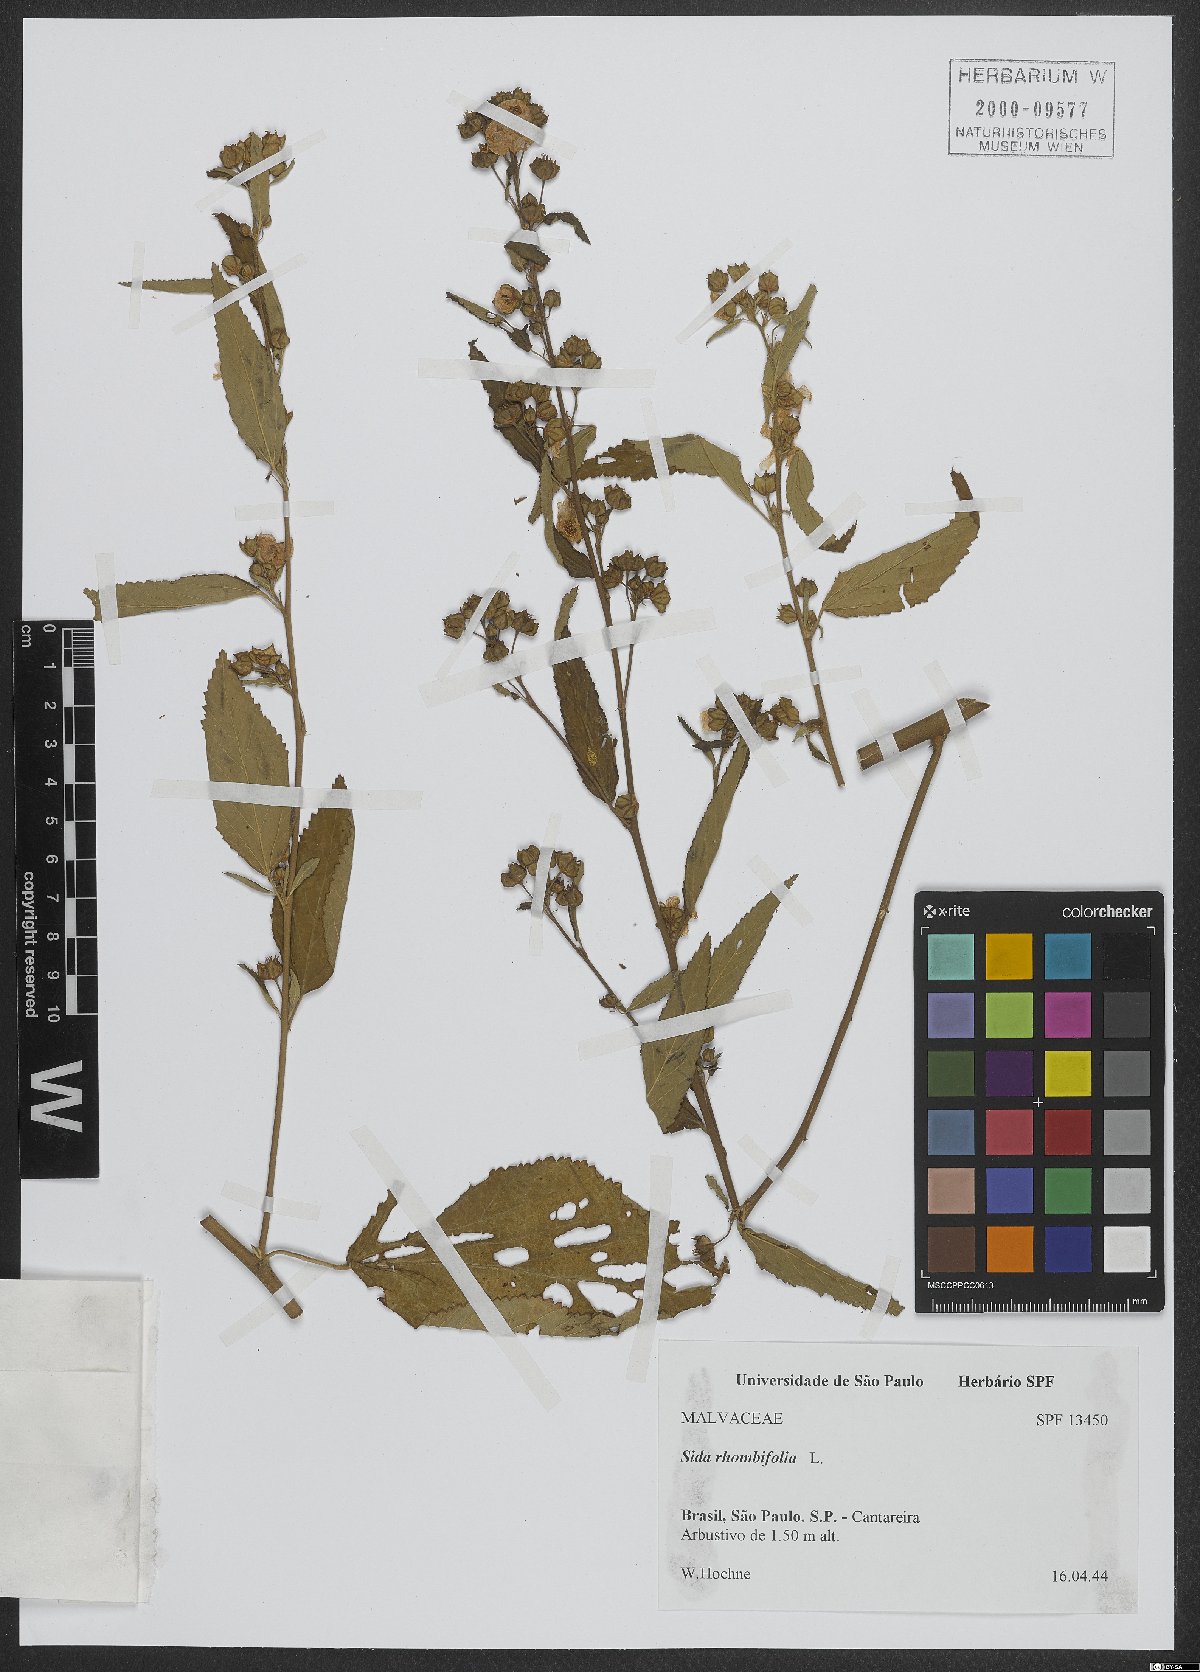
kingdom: Plantae
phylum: Tracheophyta
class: Magnoliopsida
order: Malvales
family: Malvaceae
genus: Sida
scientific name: Sida rhombifolia
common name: Queensland-hemp
